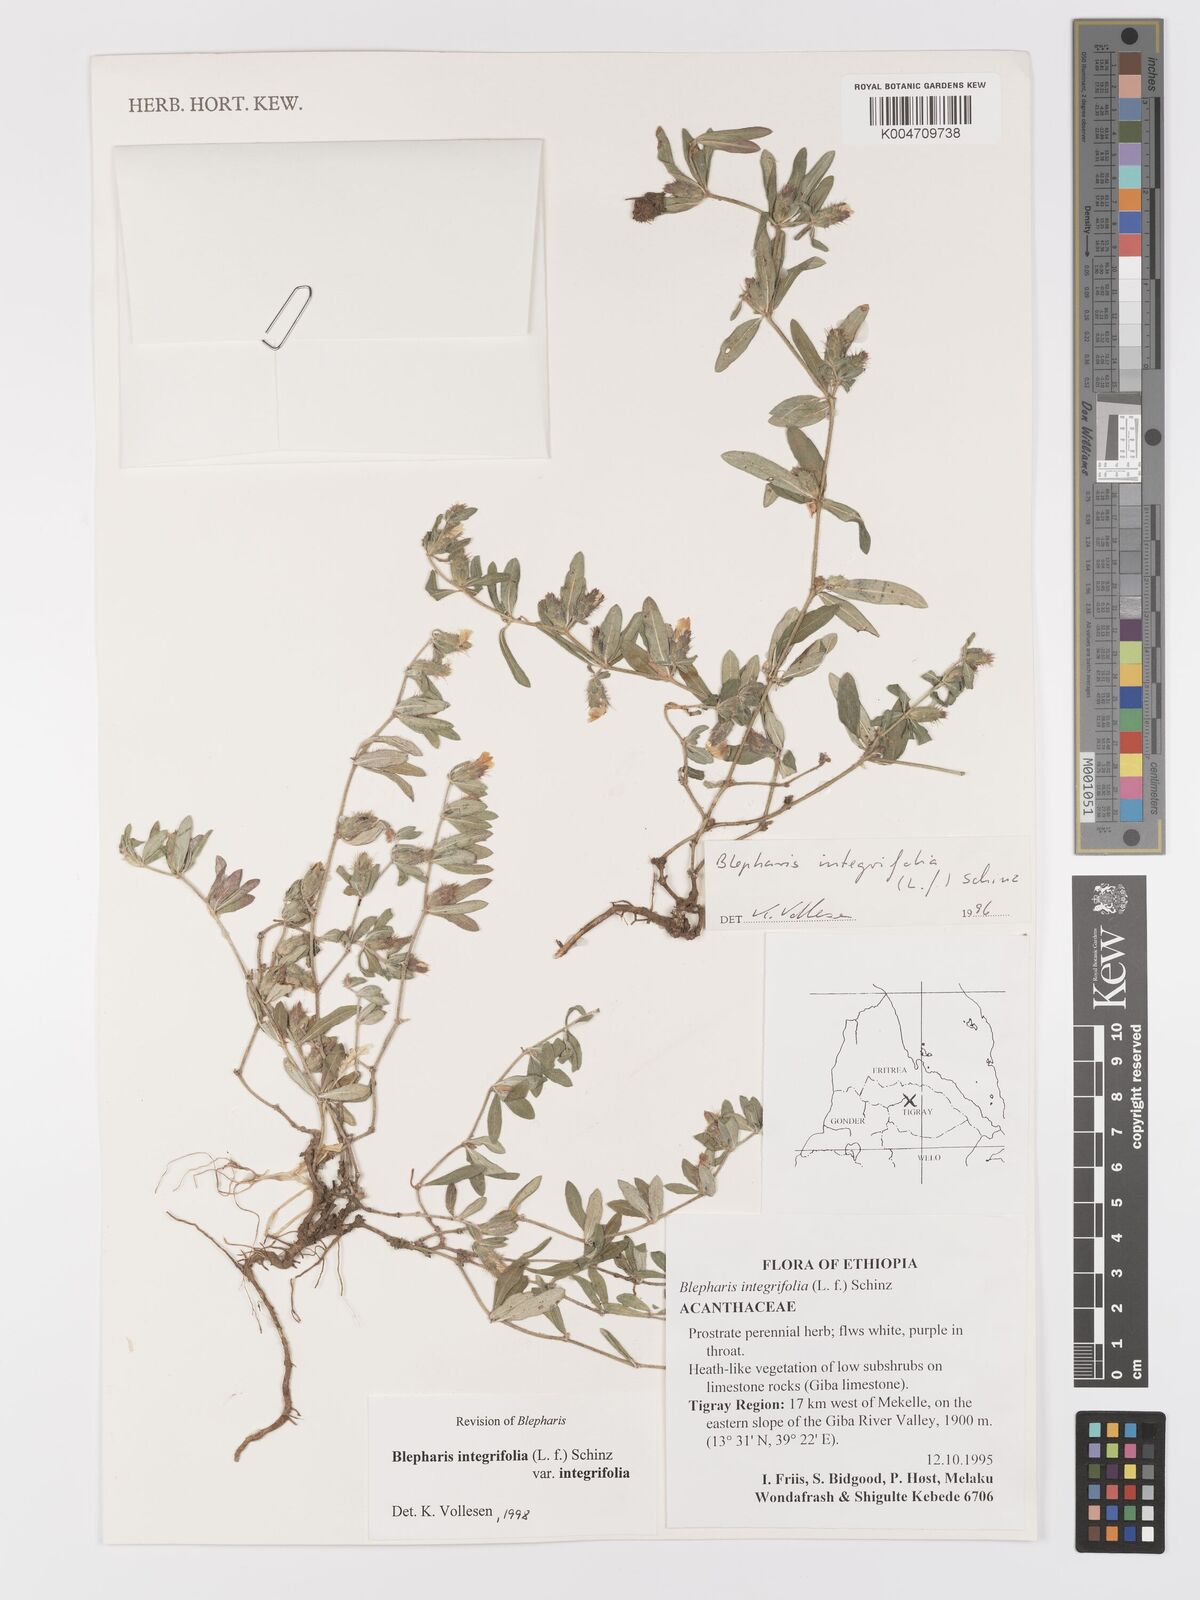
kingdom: Plantae
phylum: Tracheophyta
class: Magnoliopsida
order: Lamiales
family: Acanthaceae
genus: Blepharis
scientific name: Blepharis integrifolia
